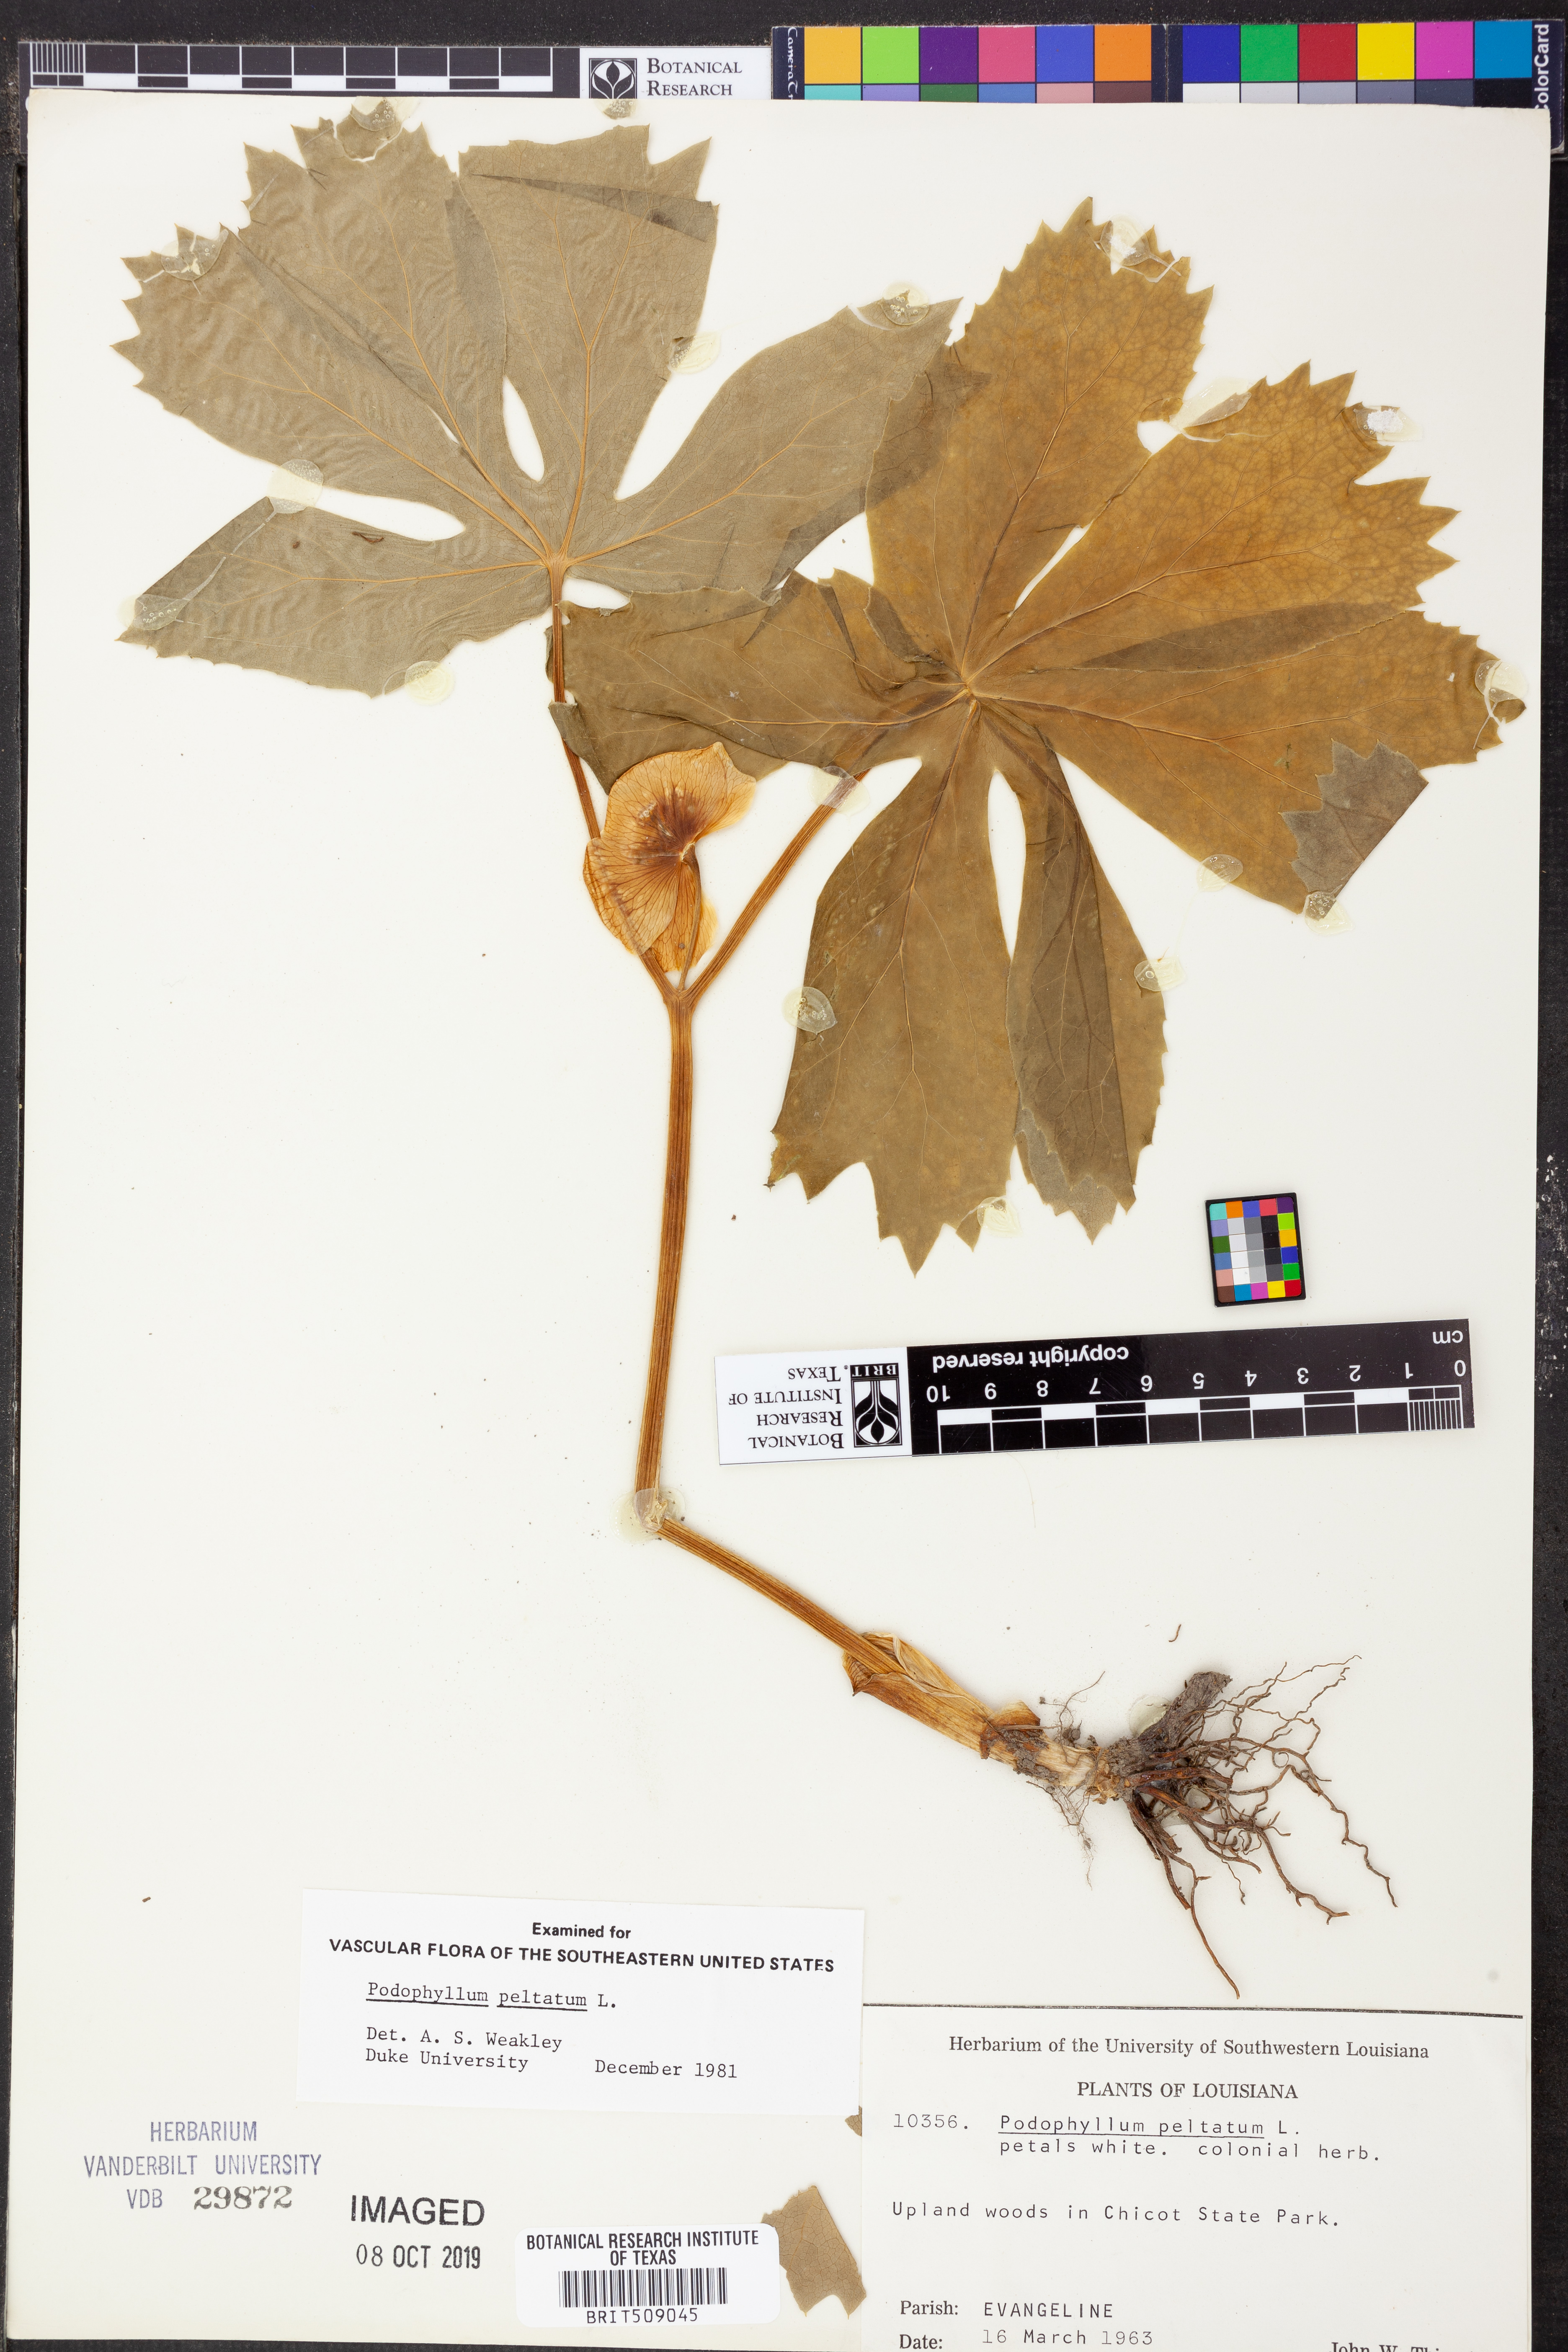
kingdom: Plantae
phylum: Tracheophyta
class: Magnoliopsida
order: Ranunculales
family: Berberidaceae
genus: Podophyllum
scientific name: Podophyllum peltatum
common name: Wild mandrake
